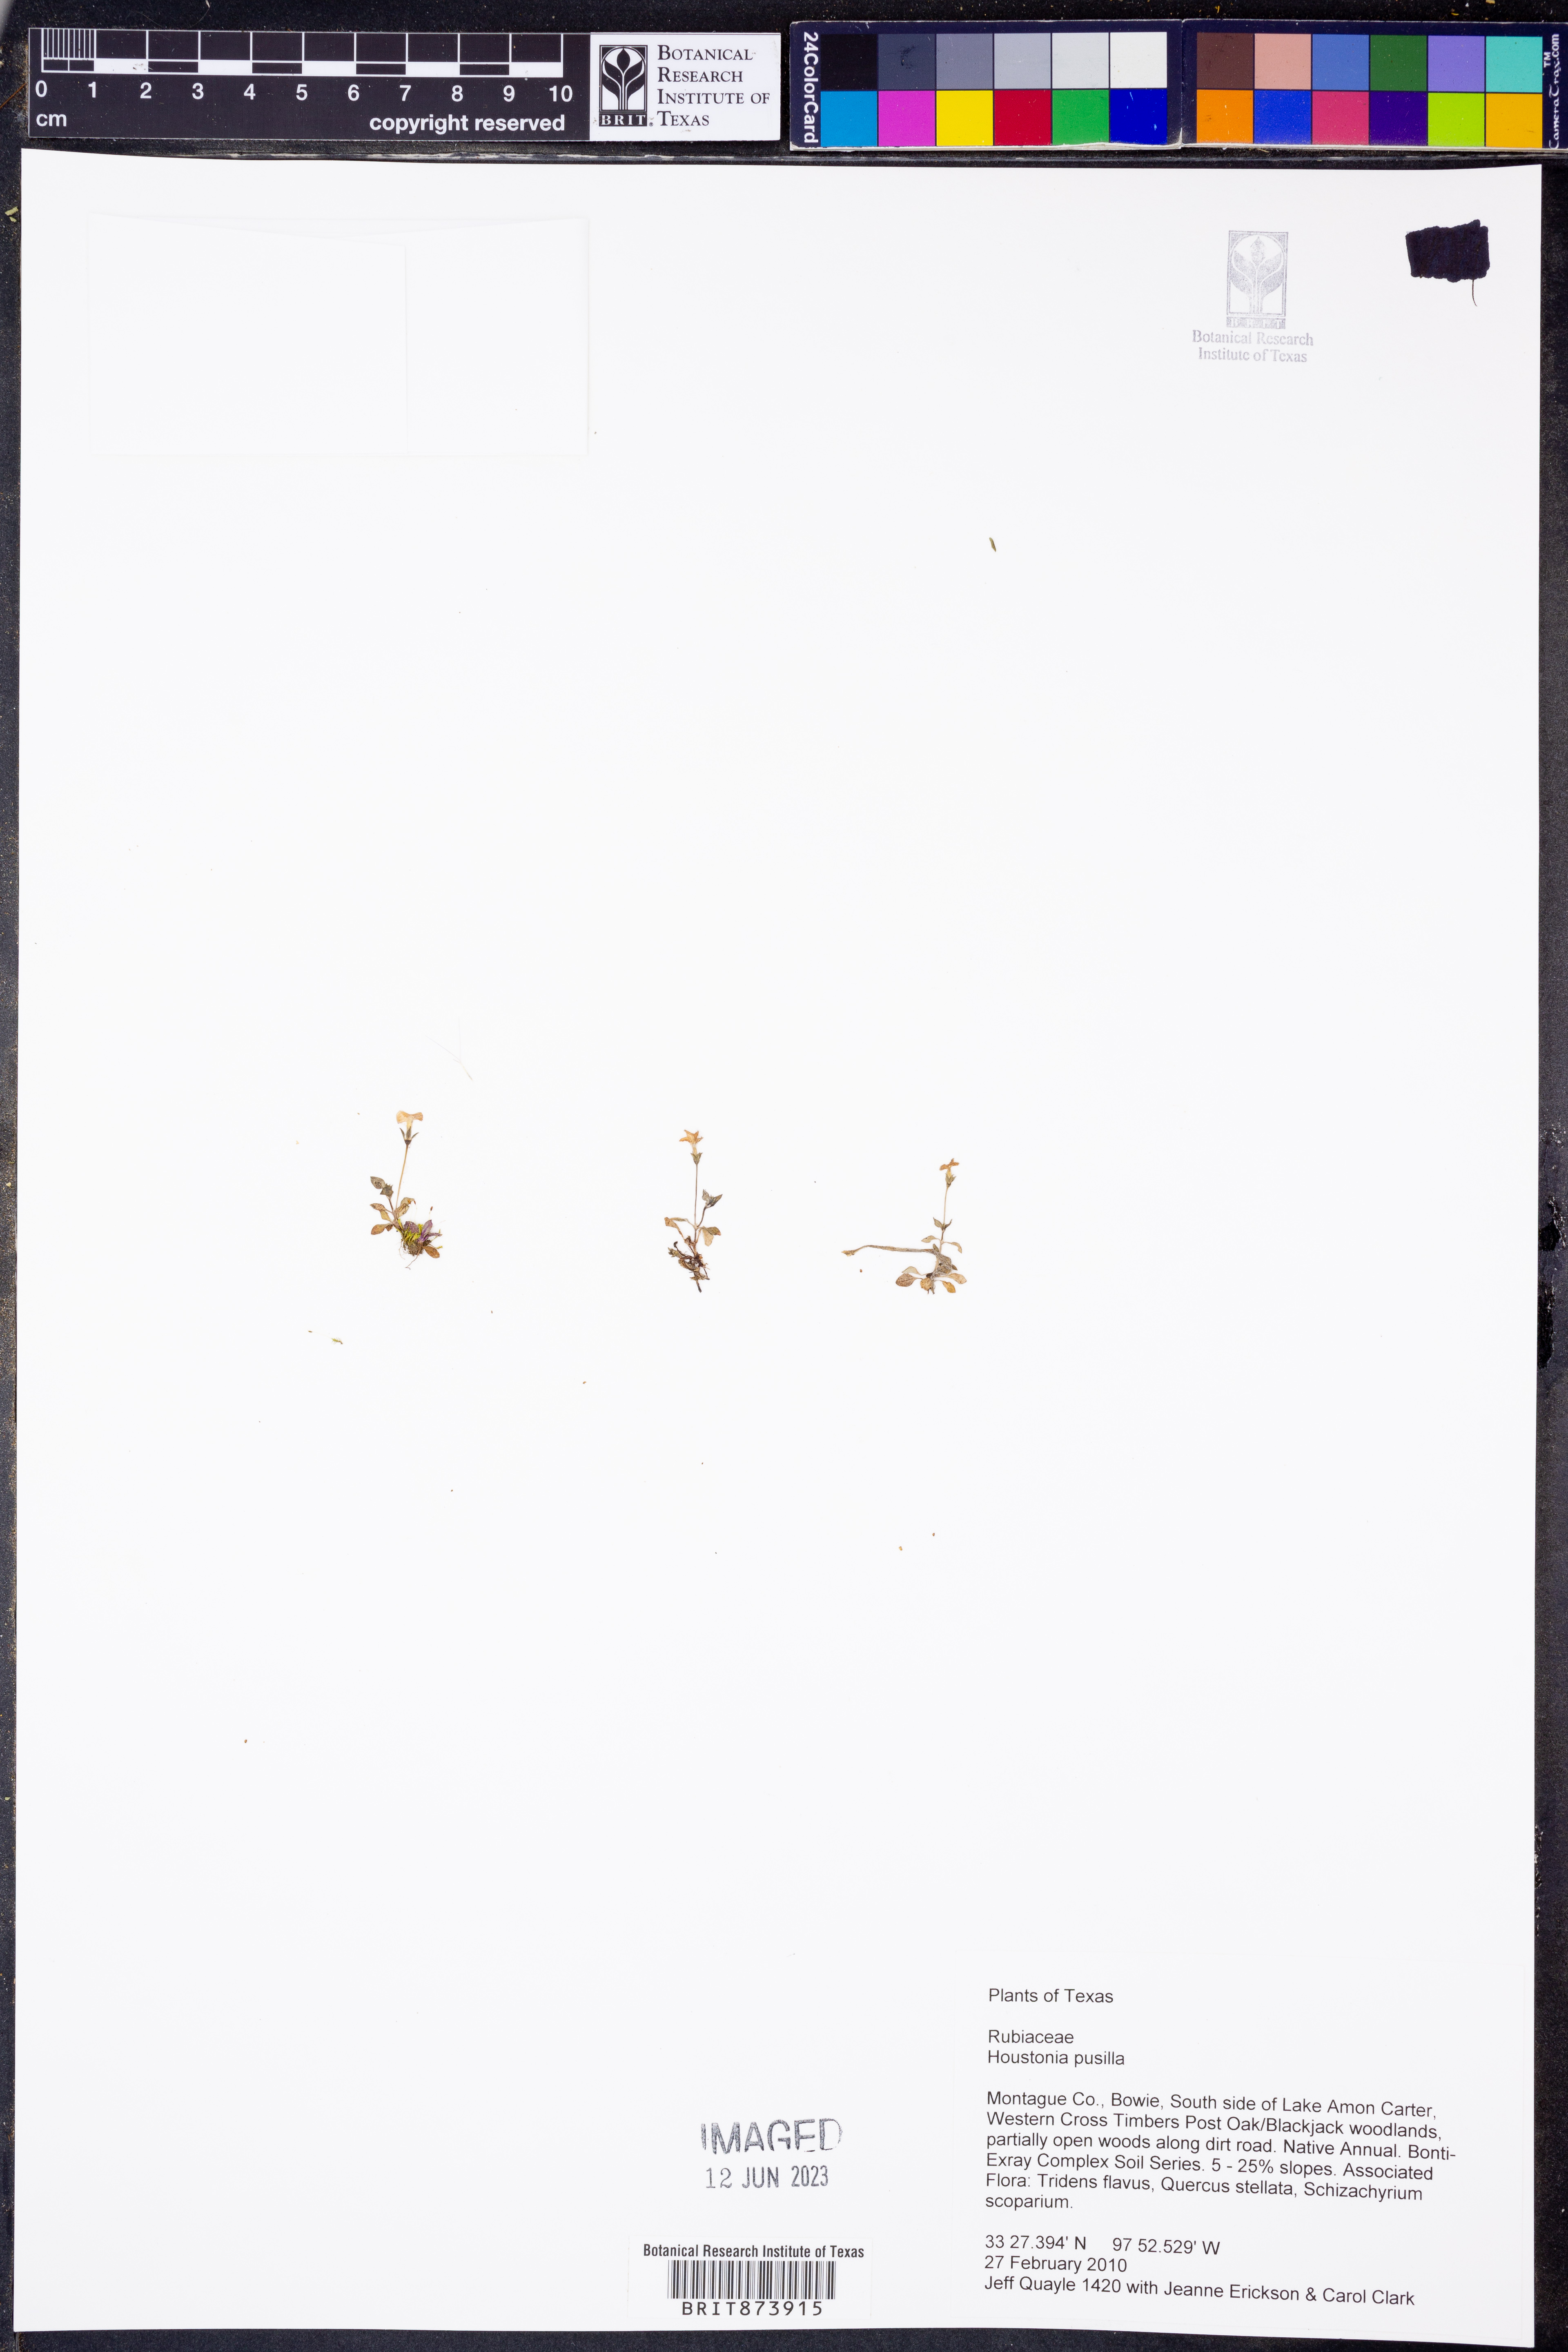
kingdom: Plantae
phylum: Tracheophyta
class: Magnoliopsida
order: Gentianales
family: Rubiaceae
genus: Houstonia
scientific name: Houstonia pusilla
